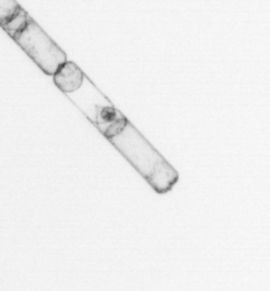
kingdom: Chromista
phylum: Ochrophyta
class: Bacillariophyceae
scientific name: Bacillariophyceae
